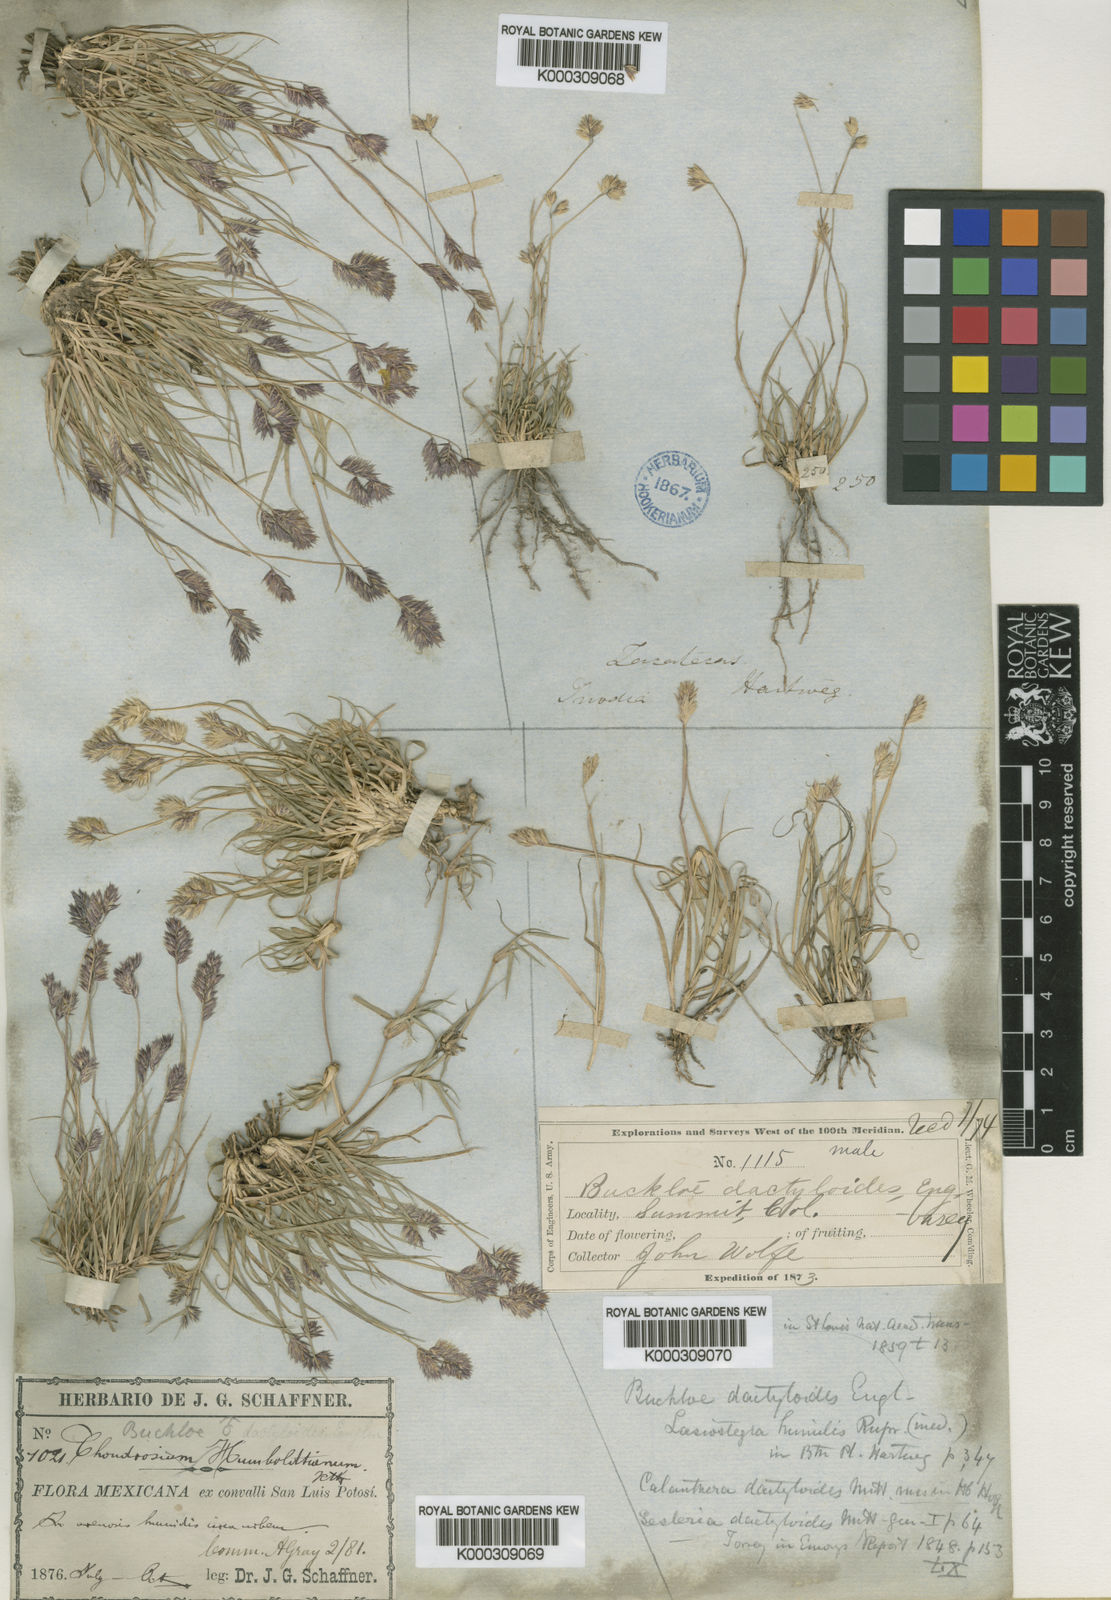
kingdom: Plantae
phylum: Tracheophyta
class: Liliopsida
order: Poales
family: Poaceae
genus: Bouteloua
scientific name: Bouteloua dactyloides
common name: Buffalo grass
